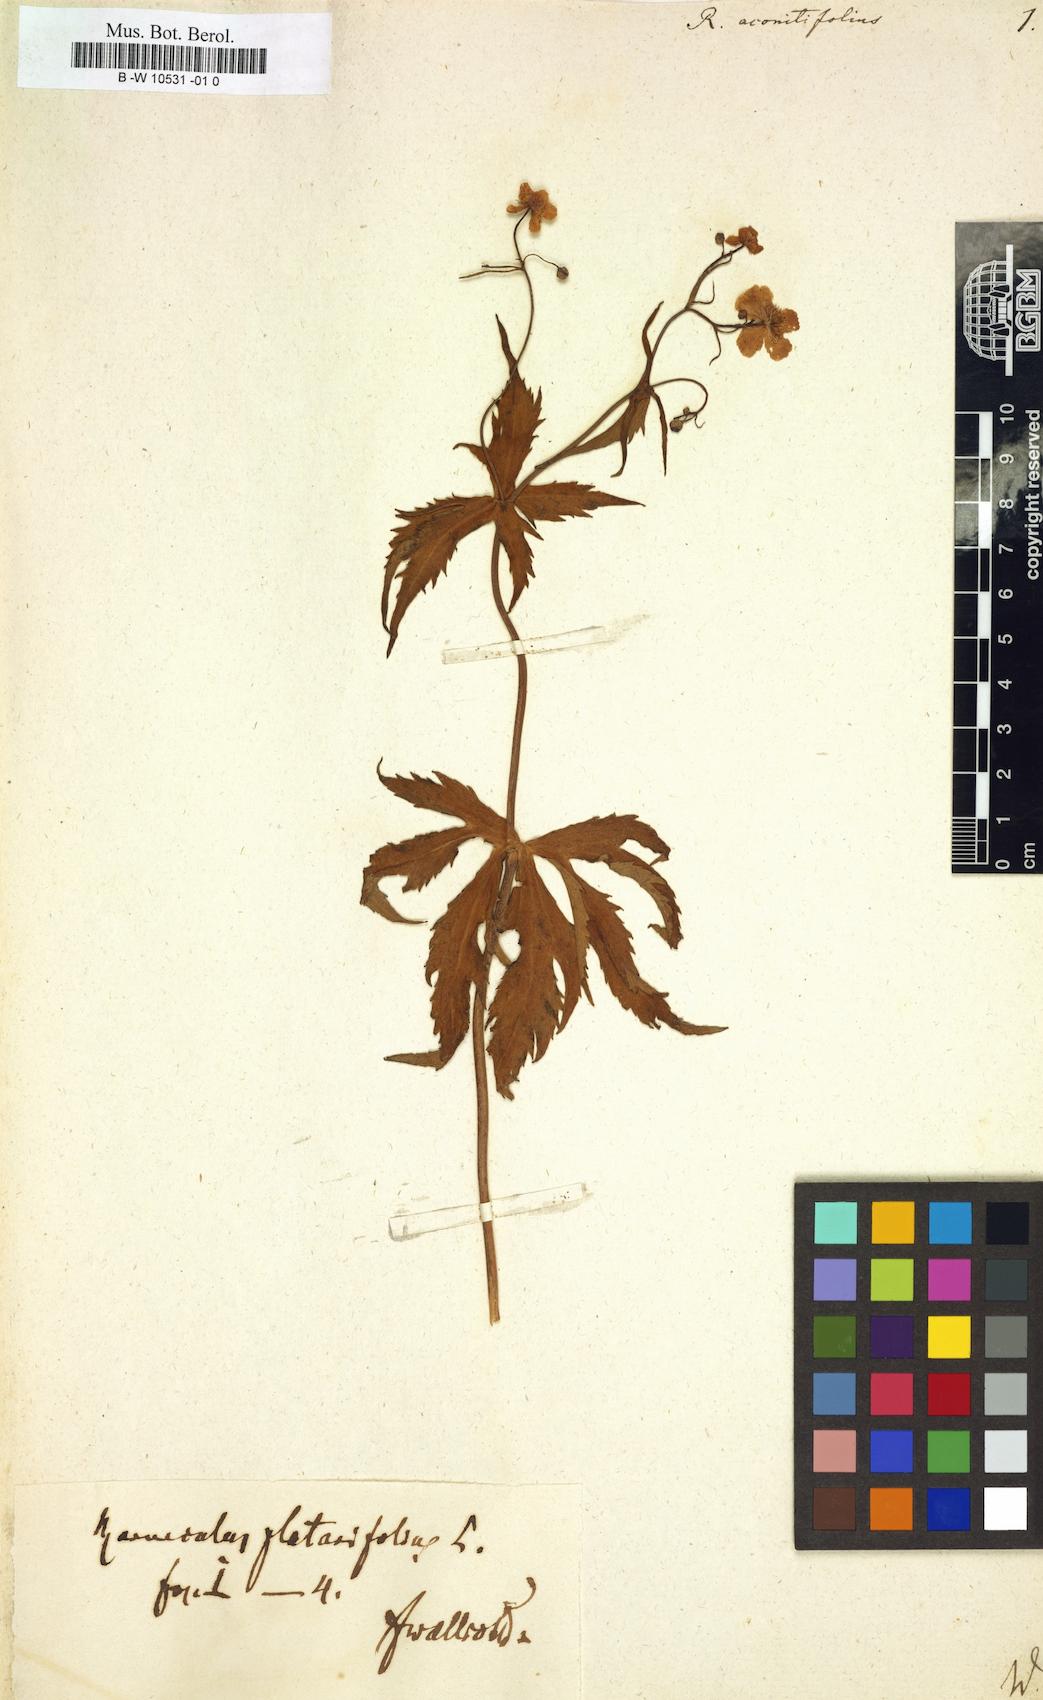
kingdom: Plantae
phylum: Tracheophyta
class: Magnoliopsida
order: Ranunculales
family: Ranunculaceae
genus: Ranunculus
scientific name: Ranunculus aconitifolius
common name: Aconite-leaved buttercup
